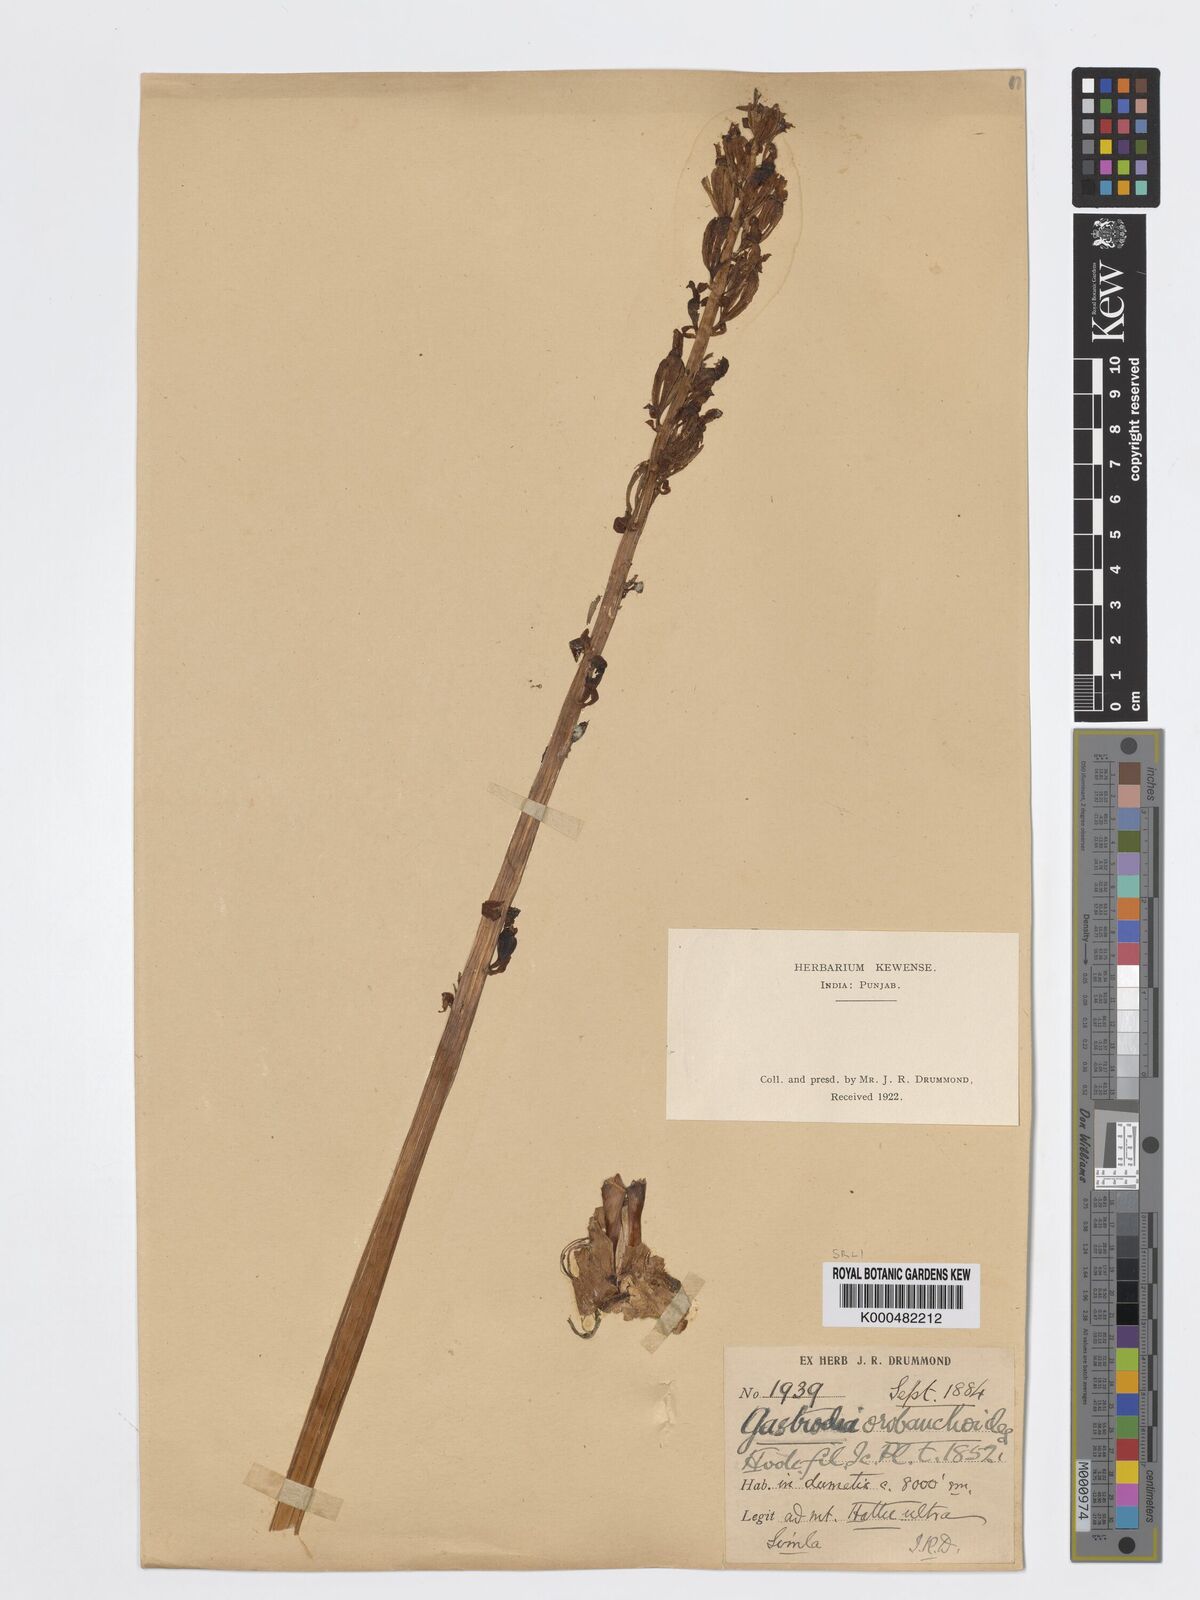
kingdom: Plantae
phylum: Tracheophyta
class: Liliopsida
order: Asparagales
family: Orchidaceae
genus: Gastrodia
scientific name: Gastrodia falconeri
